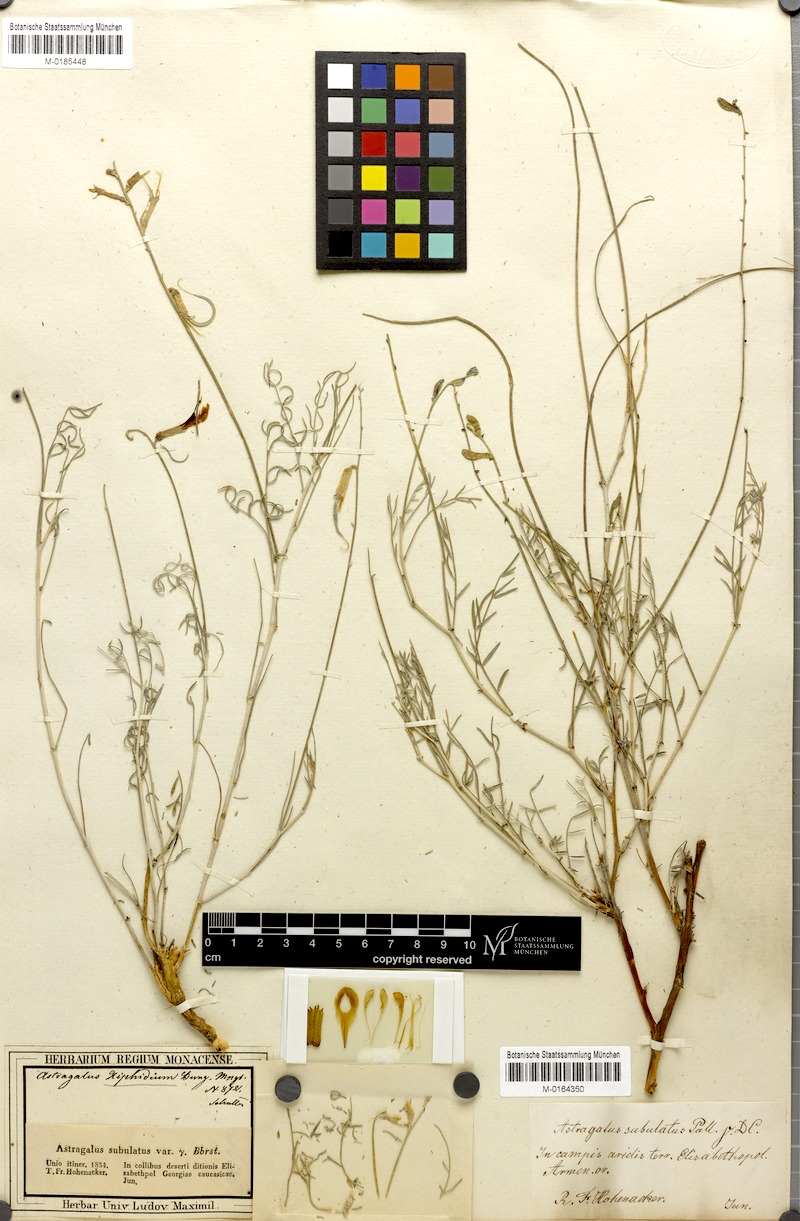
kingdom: Plantae
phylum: Tracheophyta
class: Magnoliopsida
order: Fabales
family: Fabaceae
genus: Astragalus
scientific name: Astragalus xiphidium
